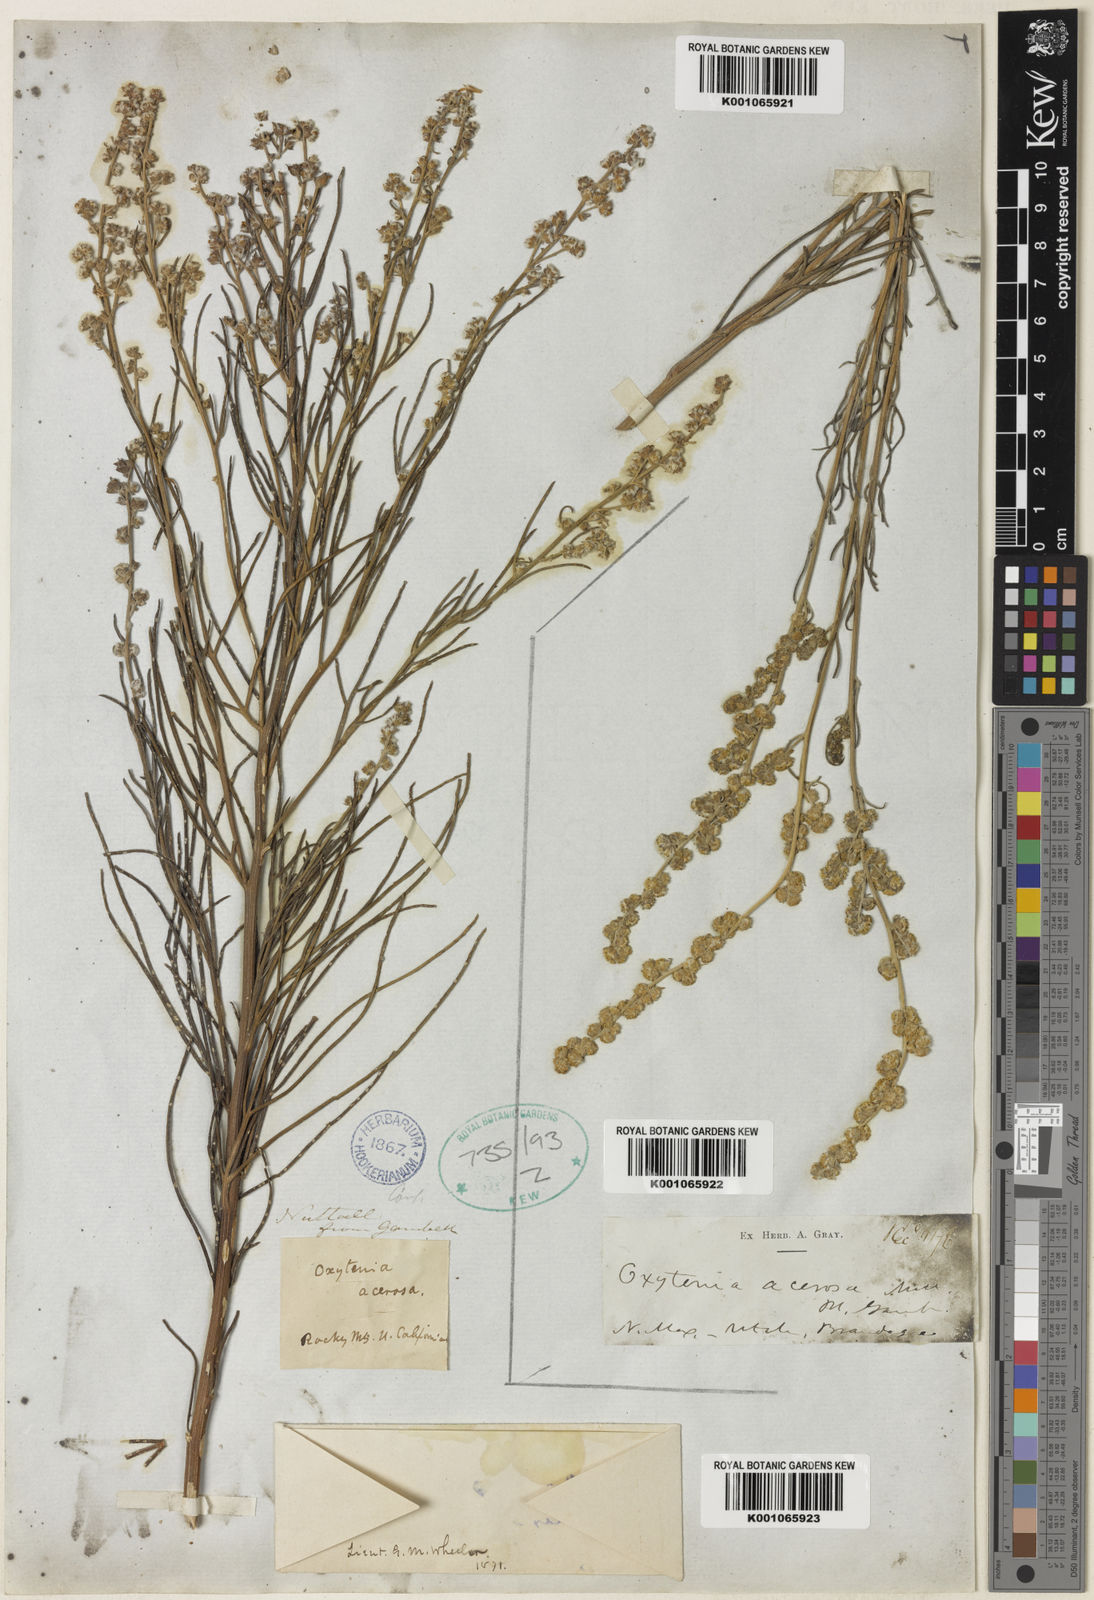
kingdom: Plantae
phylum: Tracheophyta
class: Magnoliopsida
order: Asterales
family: Asteraceae
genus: Euphrosyne
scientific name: Euphrosyne acerosa
